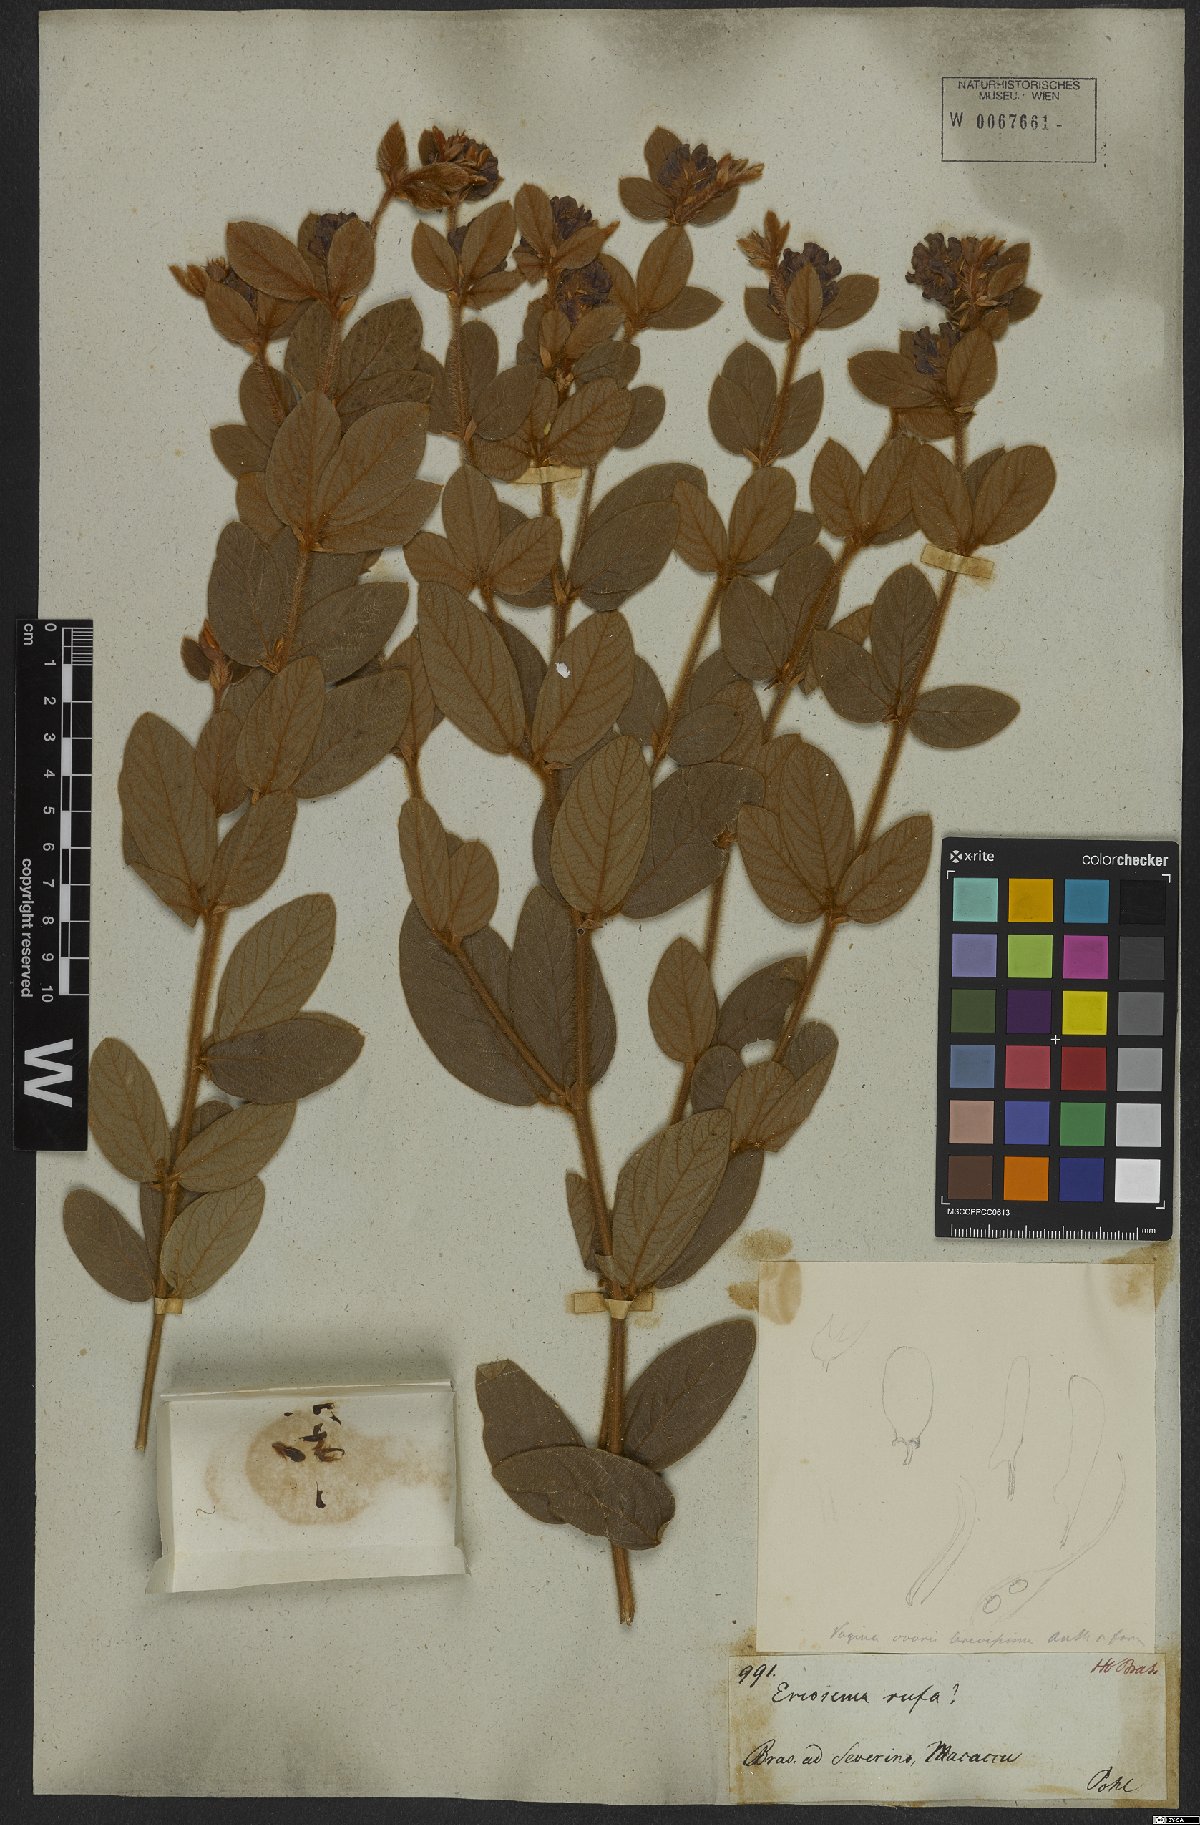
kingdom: Plantae
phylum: Tracheophyta
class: Magnoliopsida
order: Fabales
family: Fabaceae
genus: Eriosema
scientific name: Eriosema rufum
